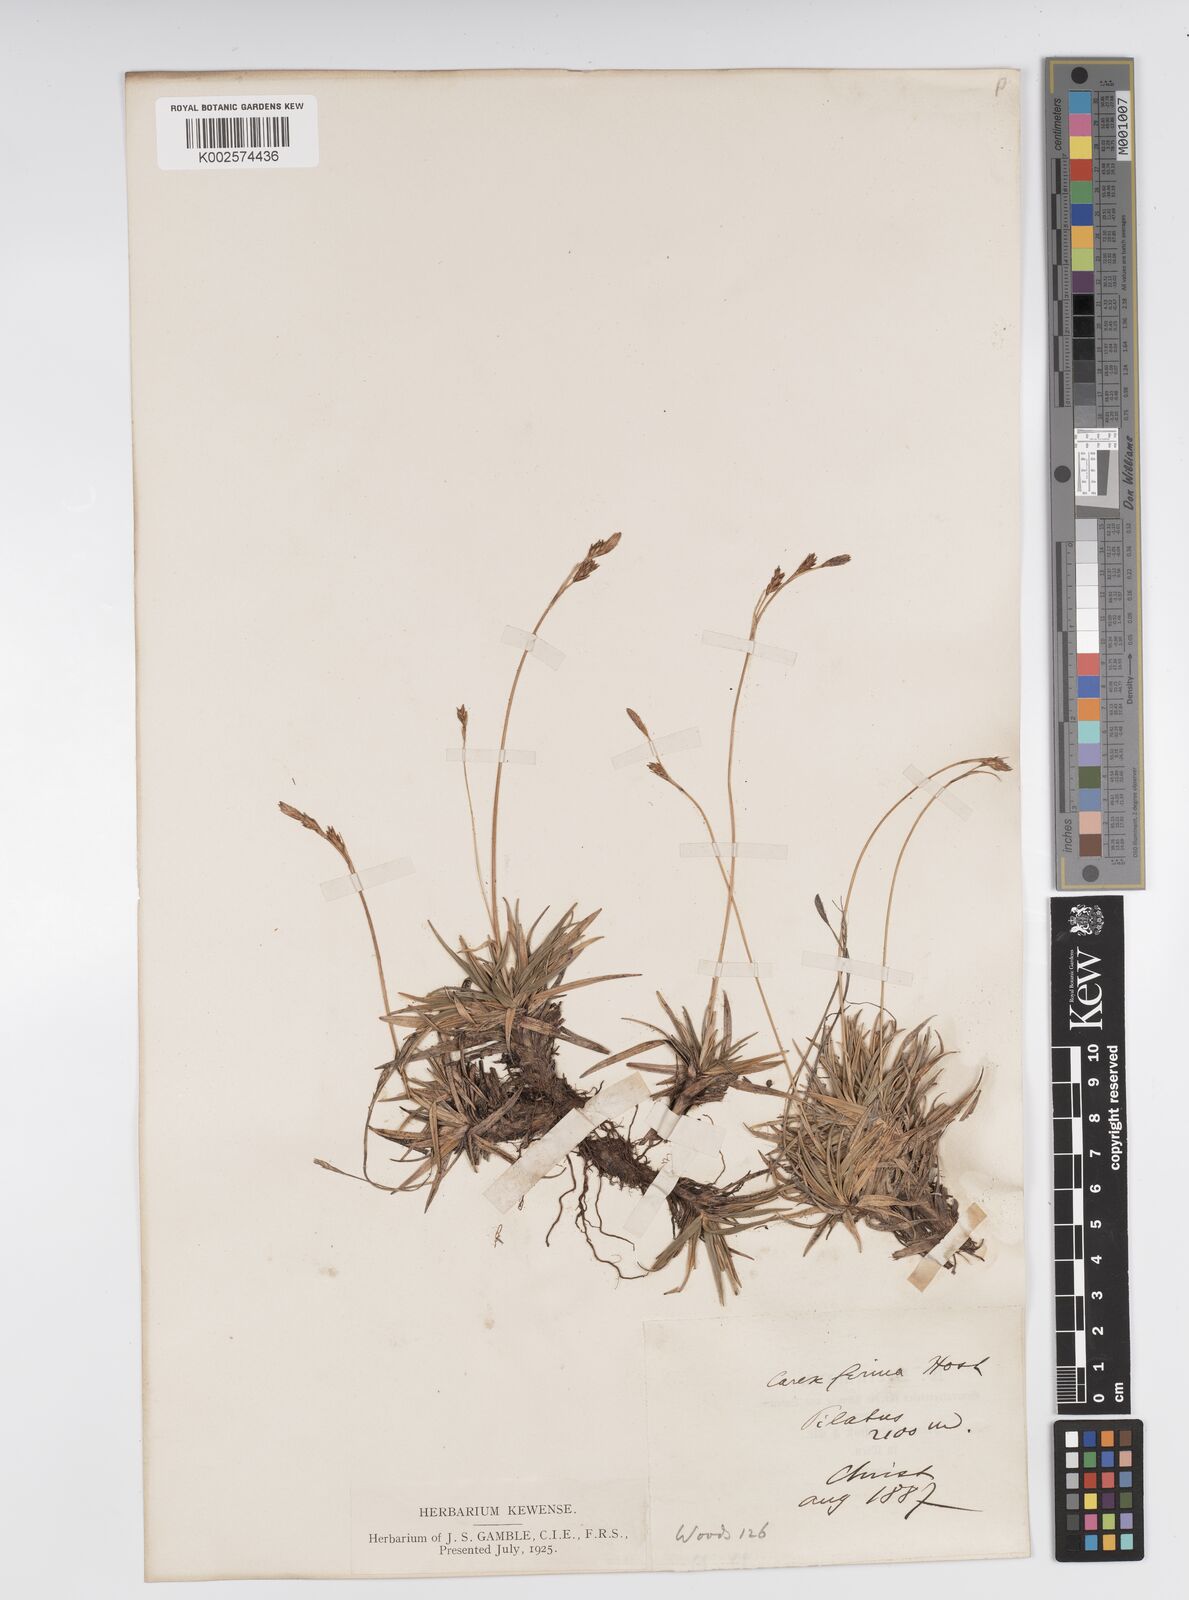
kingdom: Plantae
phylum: Tracheophyta
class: Liliopsida
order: Poales
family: Cyperaceae
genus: Carex
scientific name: Carex firma
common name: Dwarf pillow sedge
